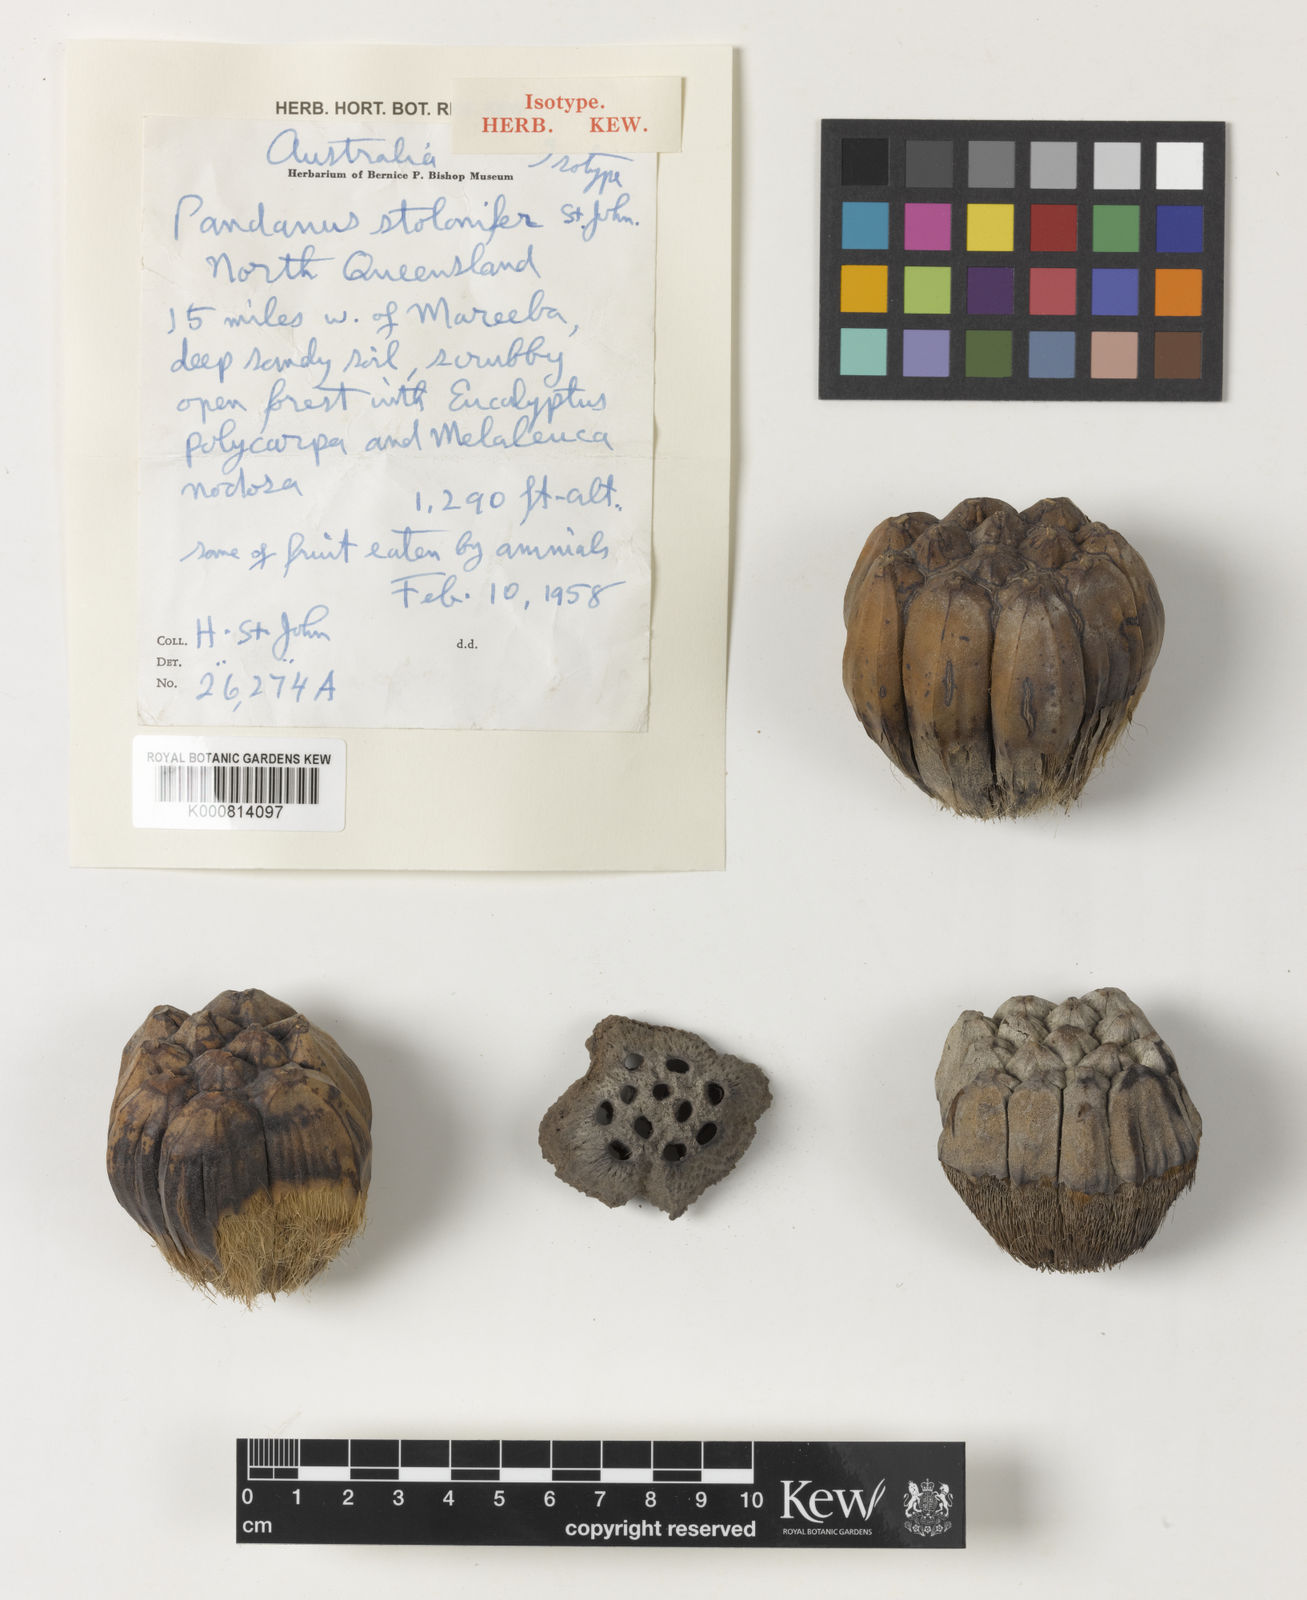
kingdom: Plantae
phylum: Tracheophyta
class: Liliopsida
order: Pandanales
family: Pandanaceae
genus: Pandanus
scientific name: Pandanus
